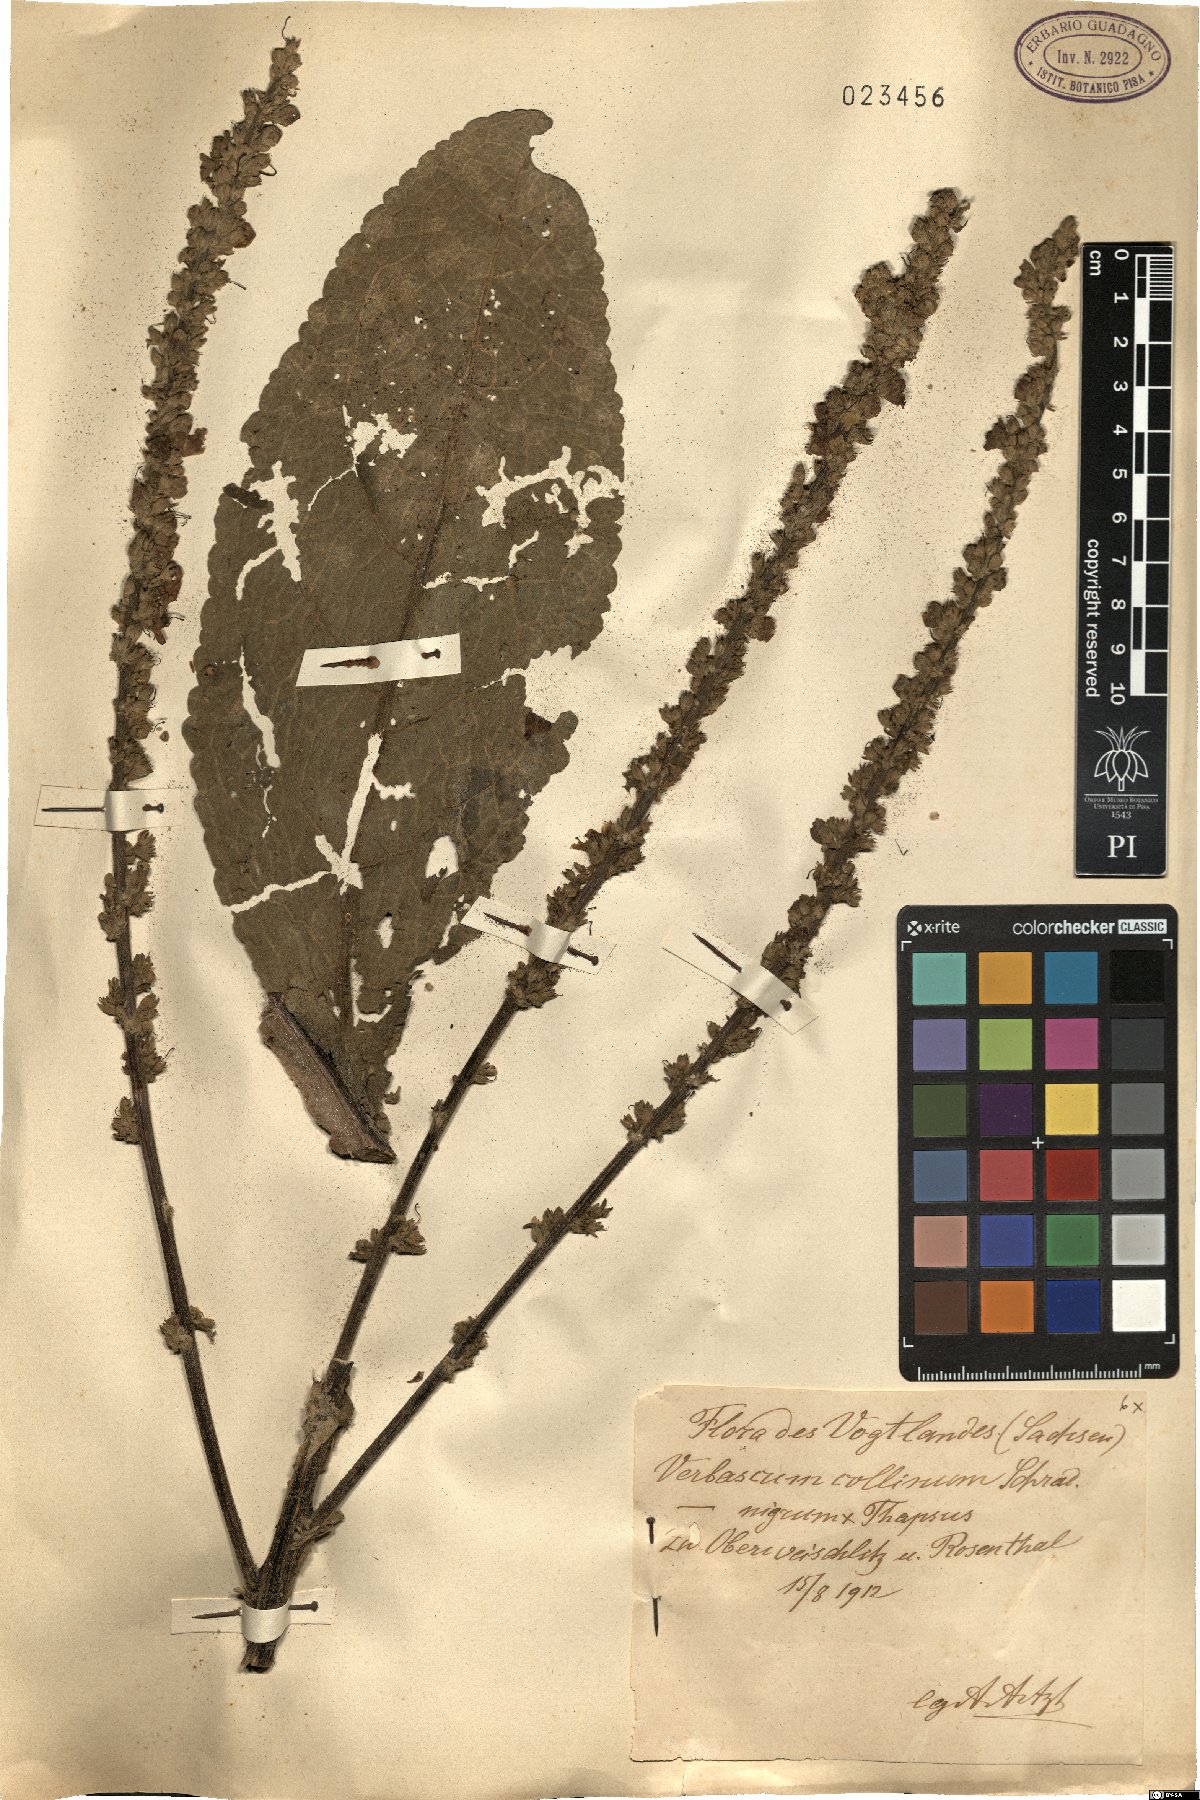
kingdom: Plantae
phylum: Tracheophyta
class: Magnoliopsida
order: Lamiales
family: Scrophulariaceae
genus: Verbascum
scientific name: Verbascum semialbum
